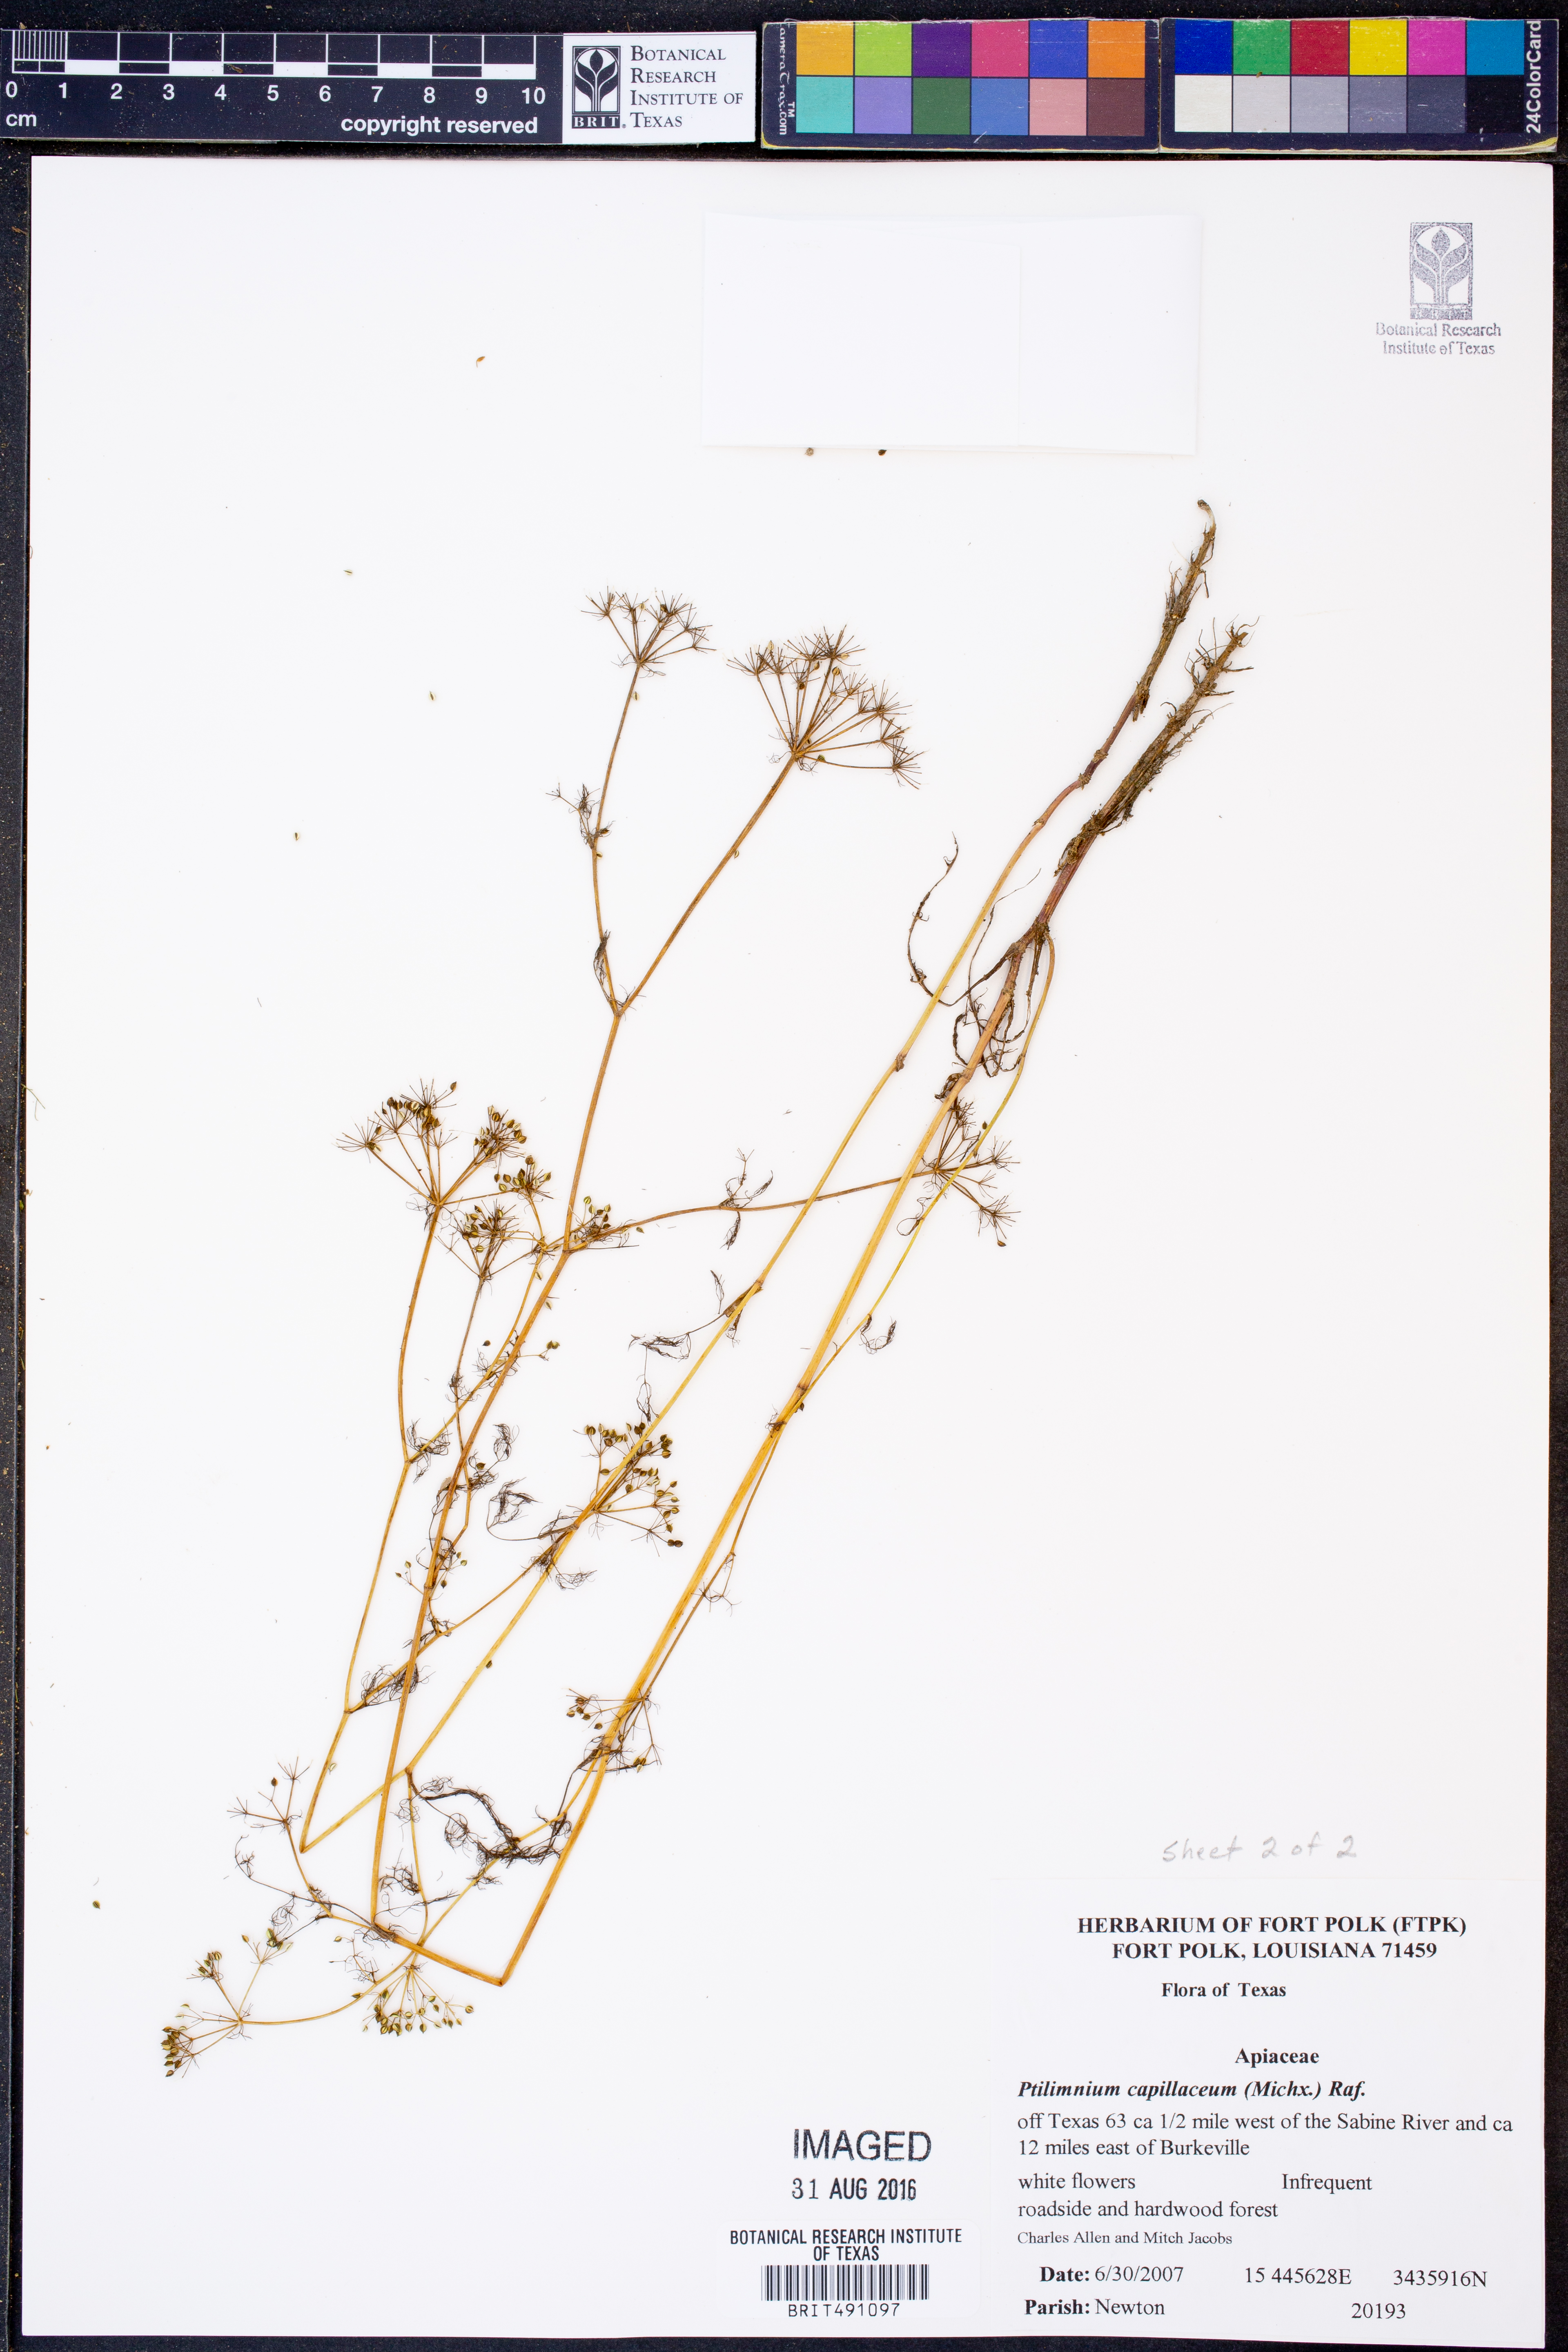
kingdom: Plantae
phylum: Tracheophyta
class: Magnoliopsida
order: Apiales
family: Apiaceae
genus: Ptilimnium
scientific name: Ptilimnium capillaceum
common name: Herbwilliam
